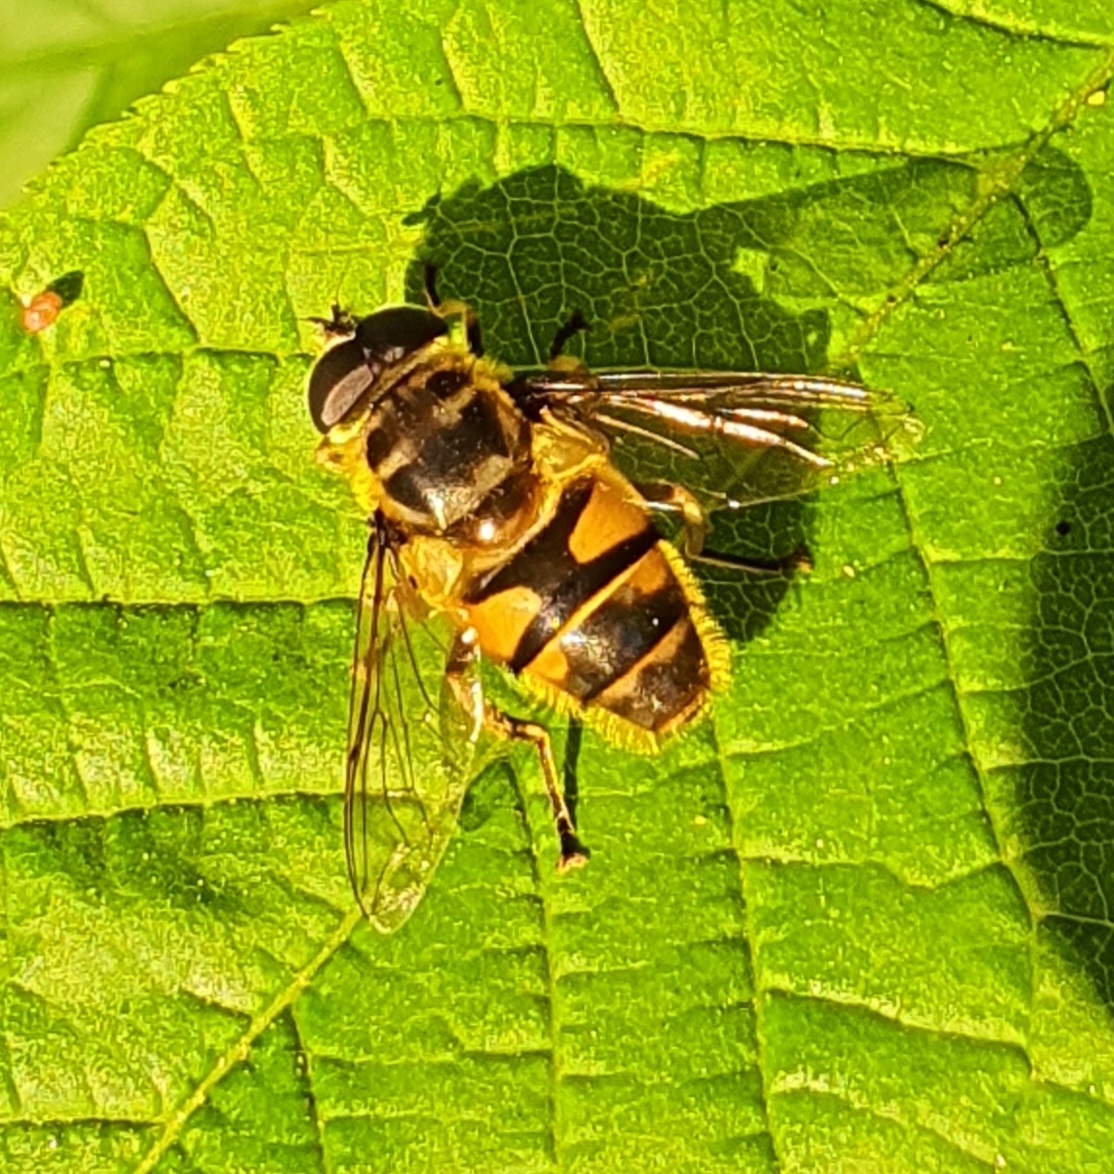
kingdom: Animalia
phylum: Arthropoda
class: Insecta
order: Diptera
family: Syrphidae
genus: Myathropa
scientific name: Myathropa florea
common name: Dødningehoved-svirreflue
